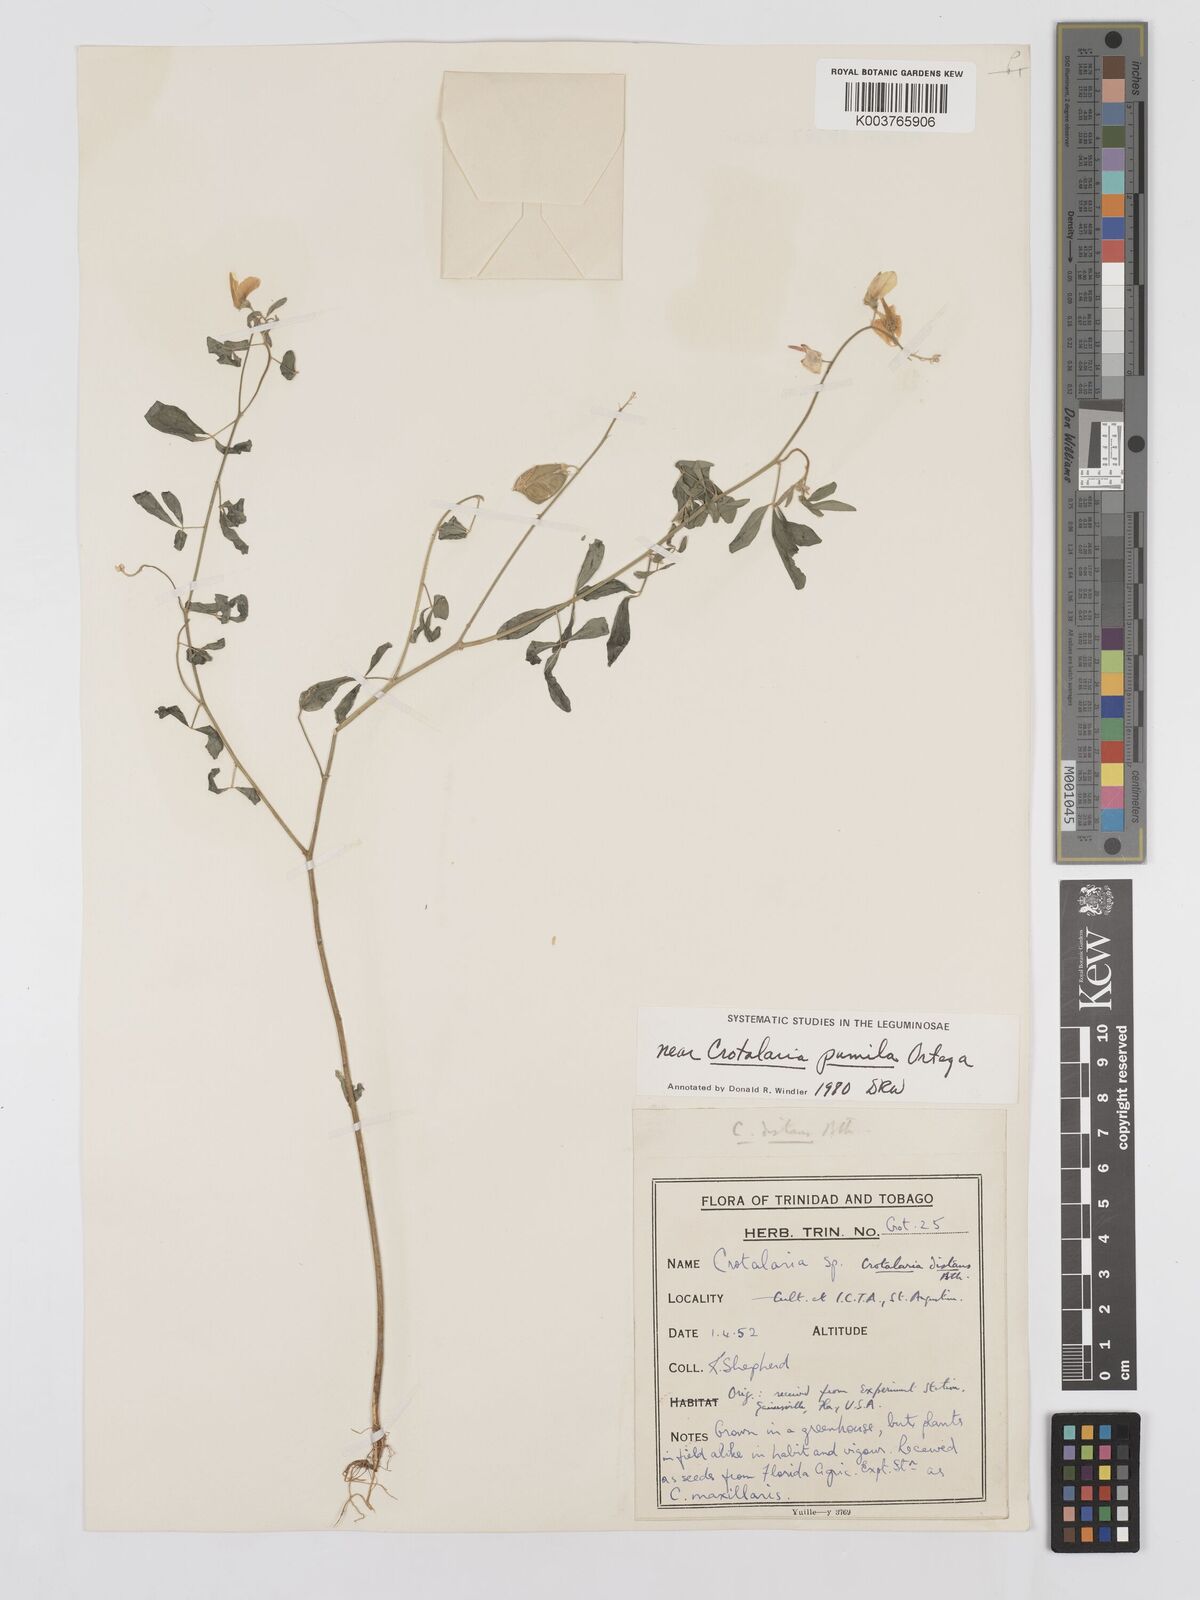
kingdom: Plantae
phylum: Tracheophyta
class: Magnoliopsida
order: Fabales
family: Fabaceae
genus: Crotalaria
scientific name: Crotalaria pumila
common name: Low rattlebox
